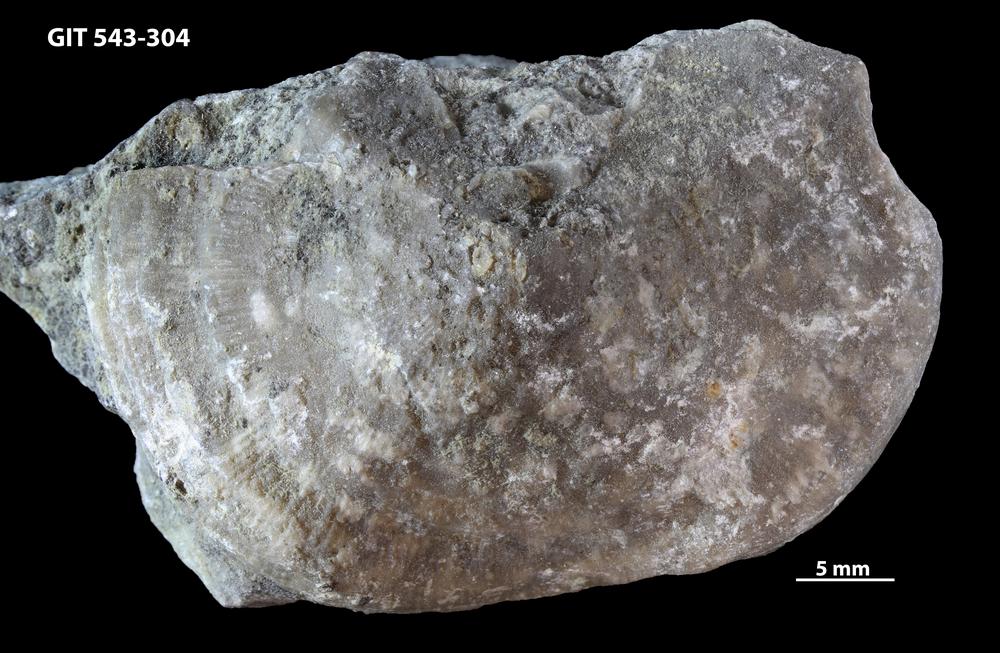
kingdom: Animalia
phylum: Brachiopoda
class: Rhynchonellata
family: Clitambonitidae
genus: Ilmarinia
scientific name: Ilmarinia dimorpha
